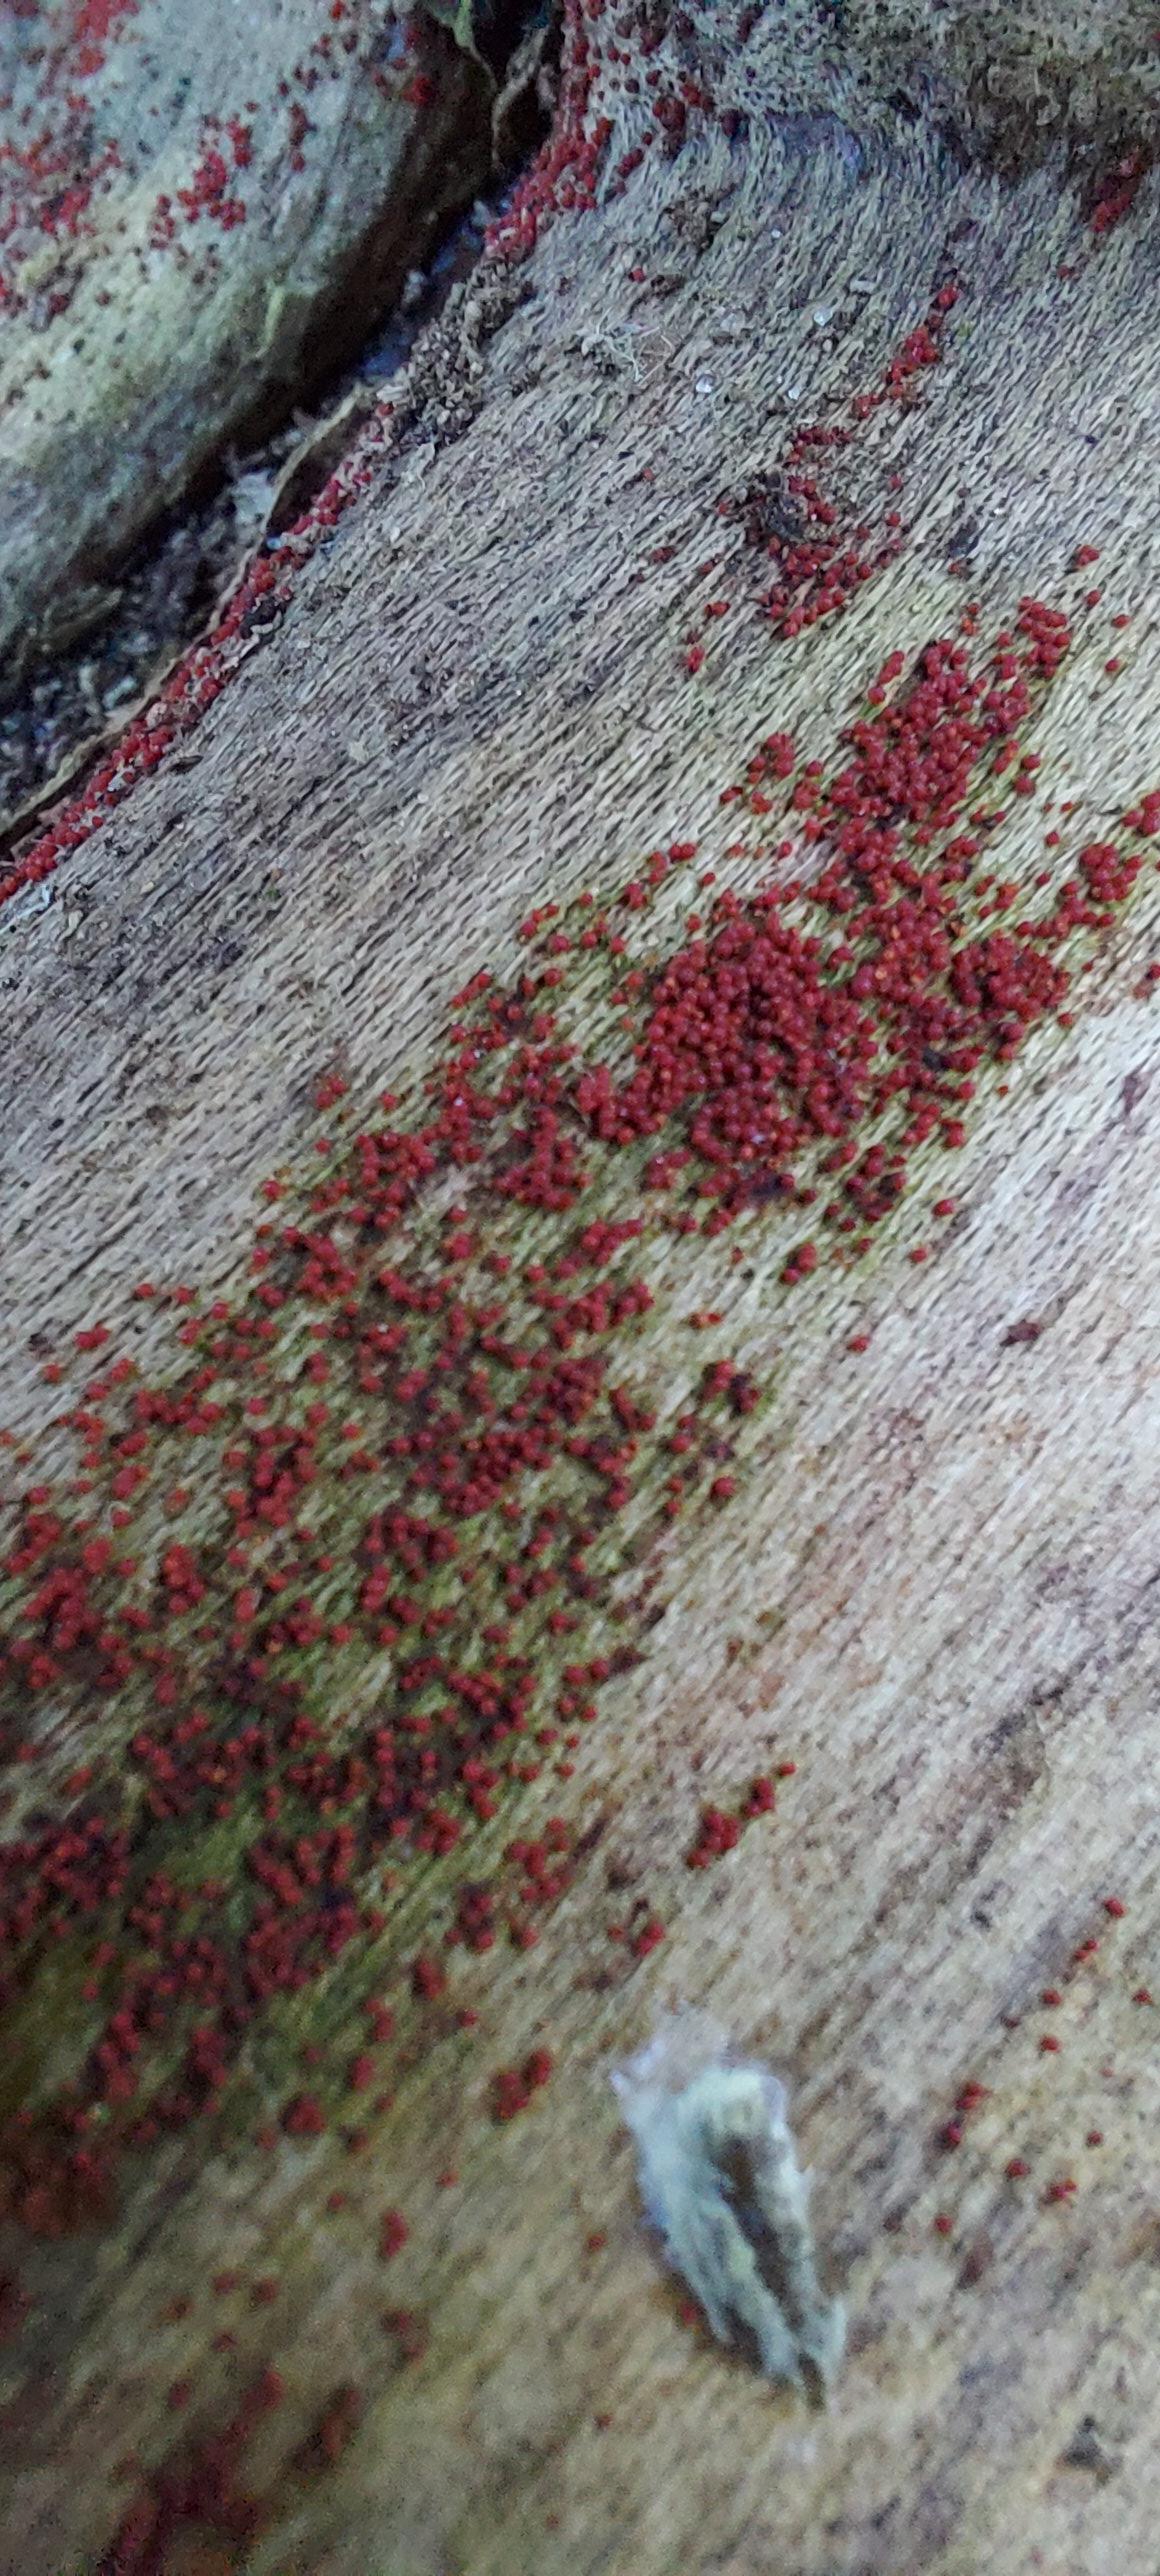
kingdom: Fungi
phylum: Ascomycota
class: Sordariomycetes
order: Hypocreales
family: Nectriaceae
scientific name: Nectriaceae
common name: cinnobersvampfamilien
